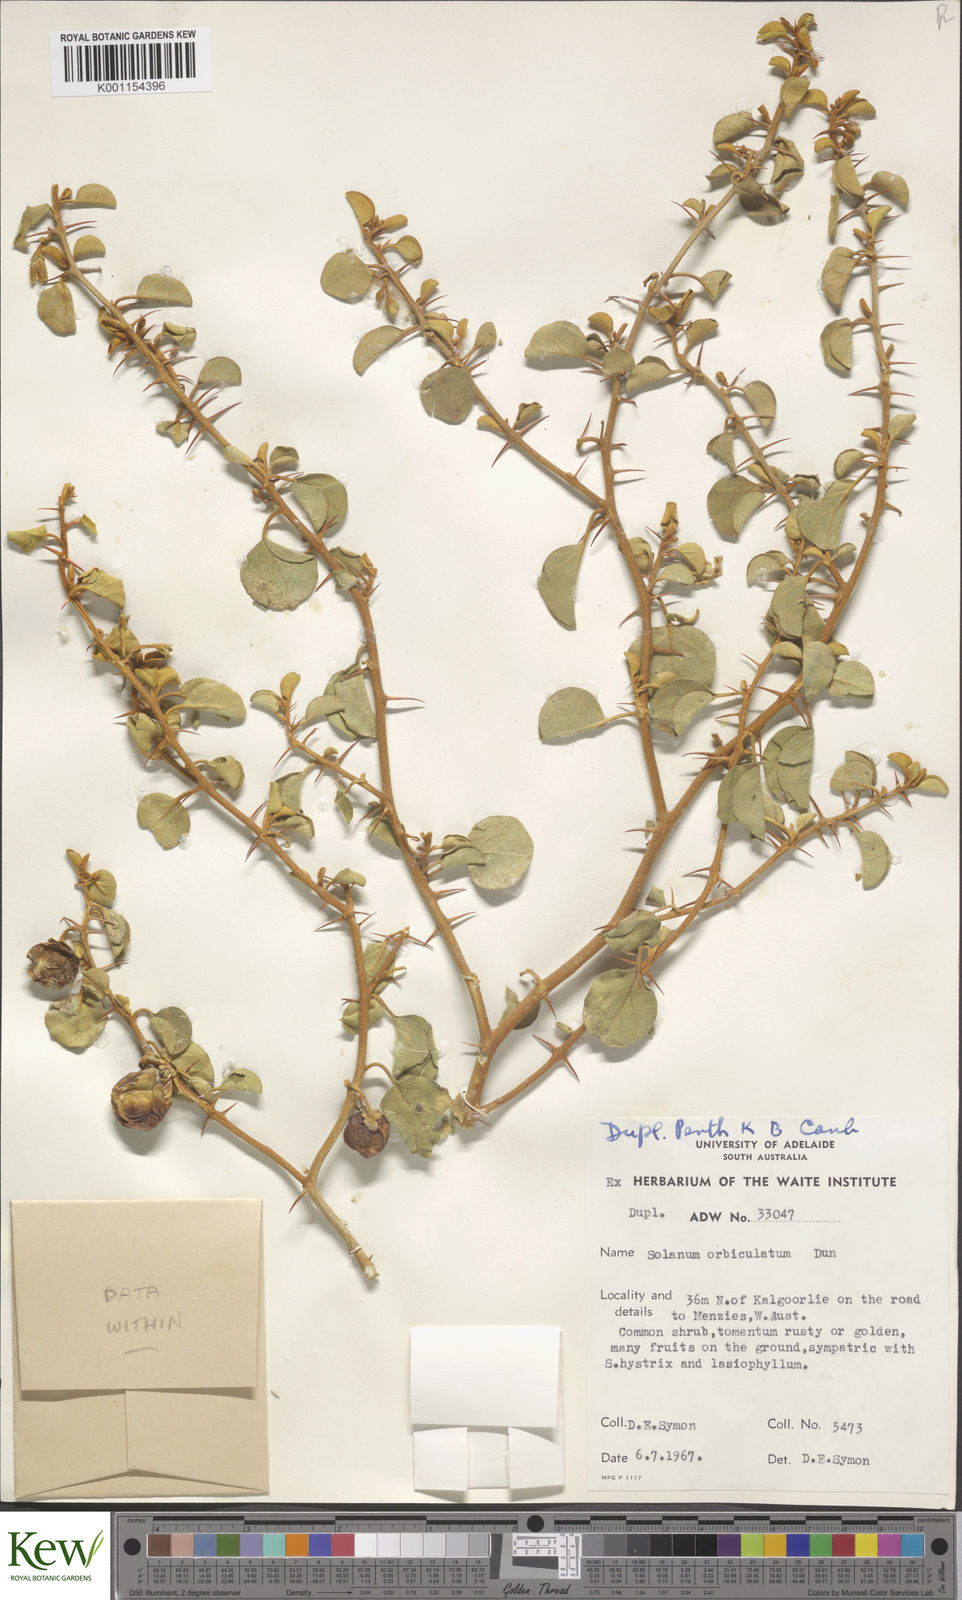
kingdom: Plantae
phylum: Tracheophyta
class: Magnoliopsida
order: Solanales
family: Solanaceae
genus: Solanum
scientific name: Solanum orbiculatum
